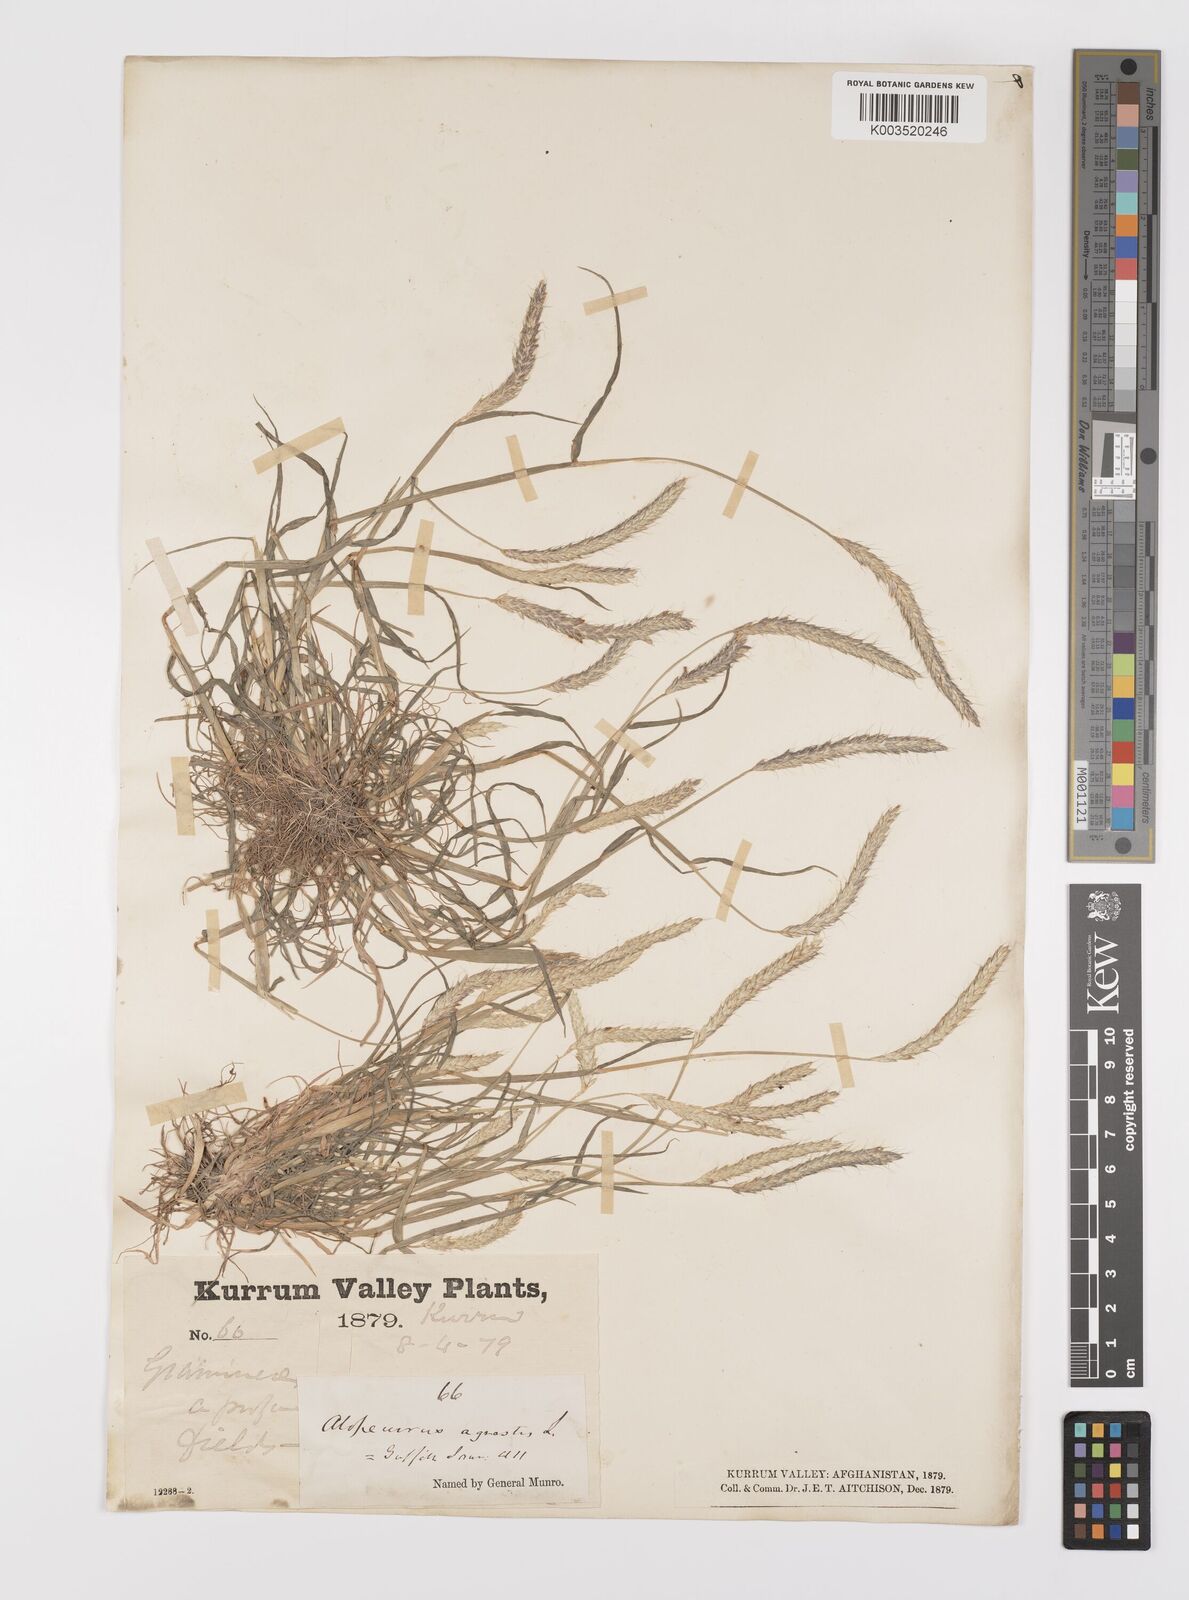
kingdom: Plantae
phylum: Tracheophyta
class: Liliopsida
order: Poales
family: Poaceae
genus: Alopecurus
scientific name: Alopecurus myosuroides
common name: Black-grass
